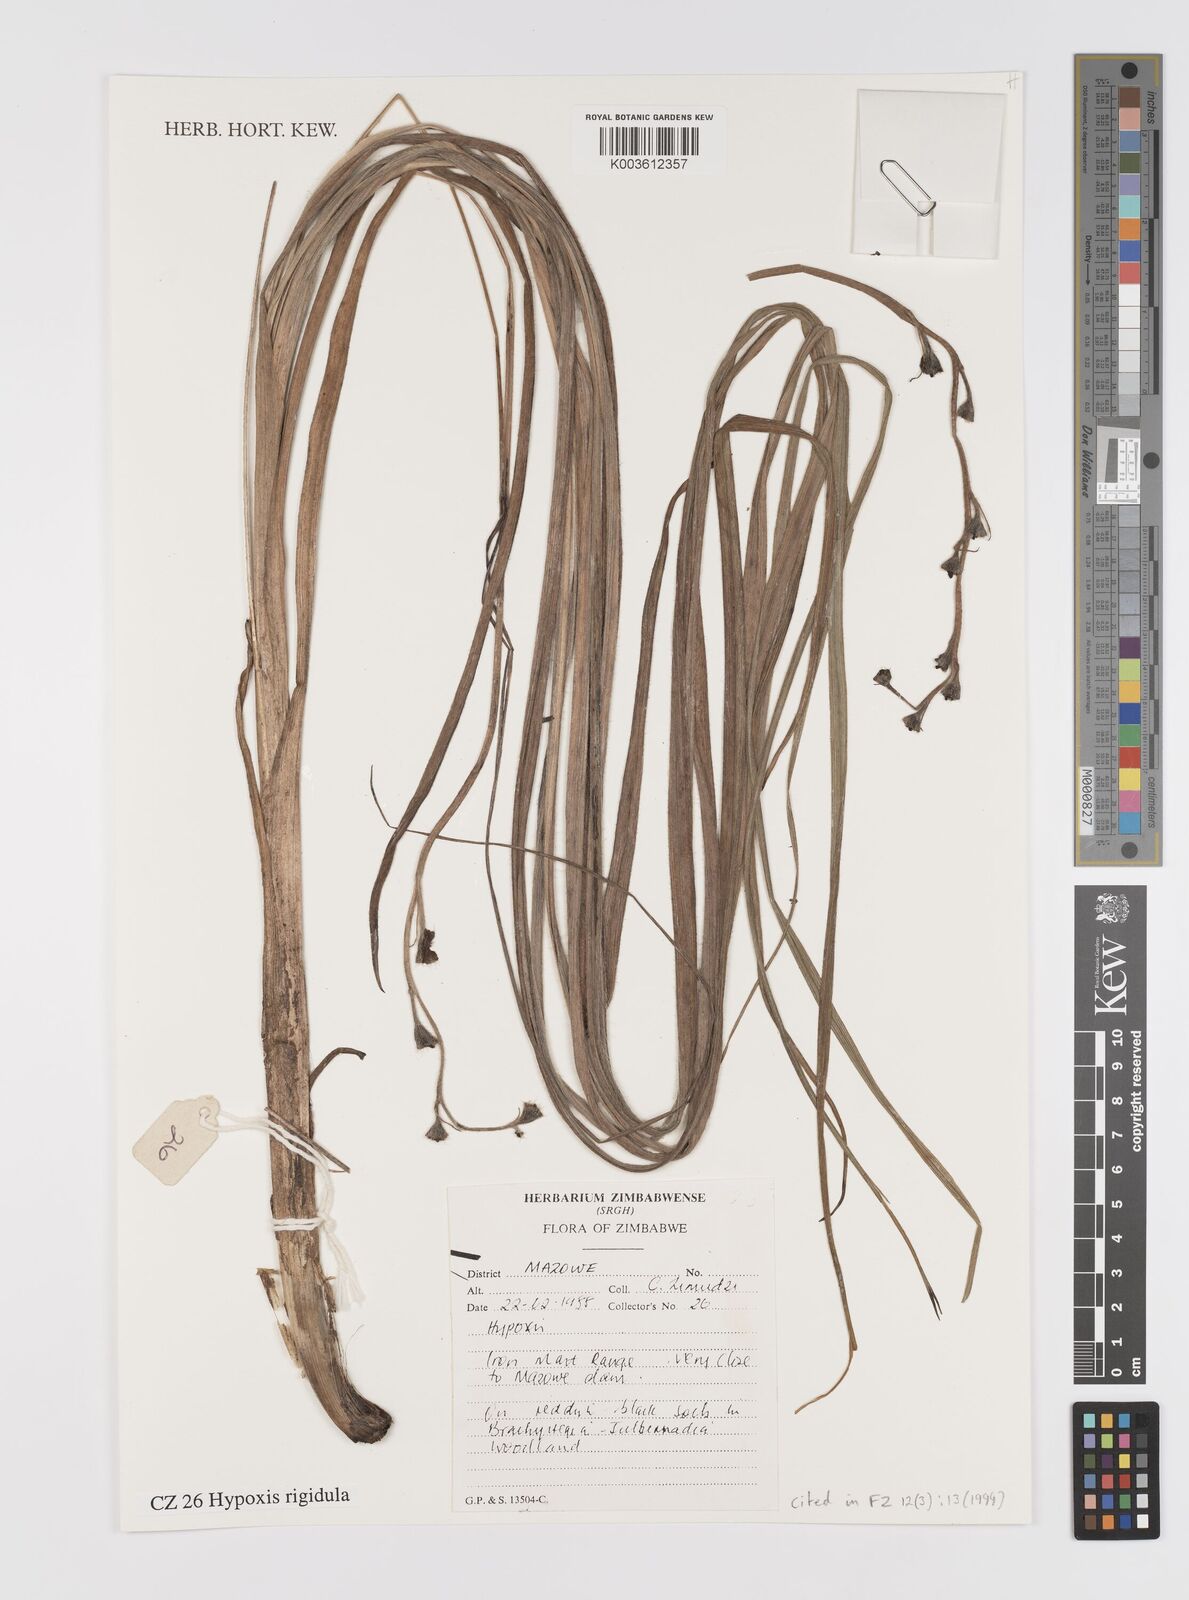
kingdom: Plantae
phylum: Tracheophyta
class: Liliopsida
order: Asparagales
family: Hypoxidaceae
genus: Hypoxis
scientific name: Hypoxis rigidula
